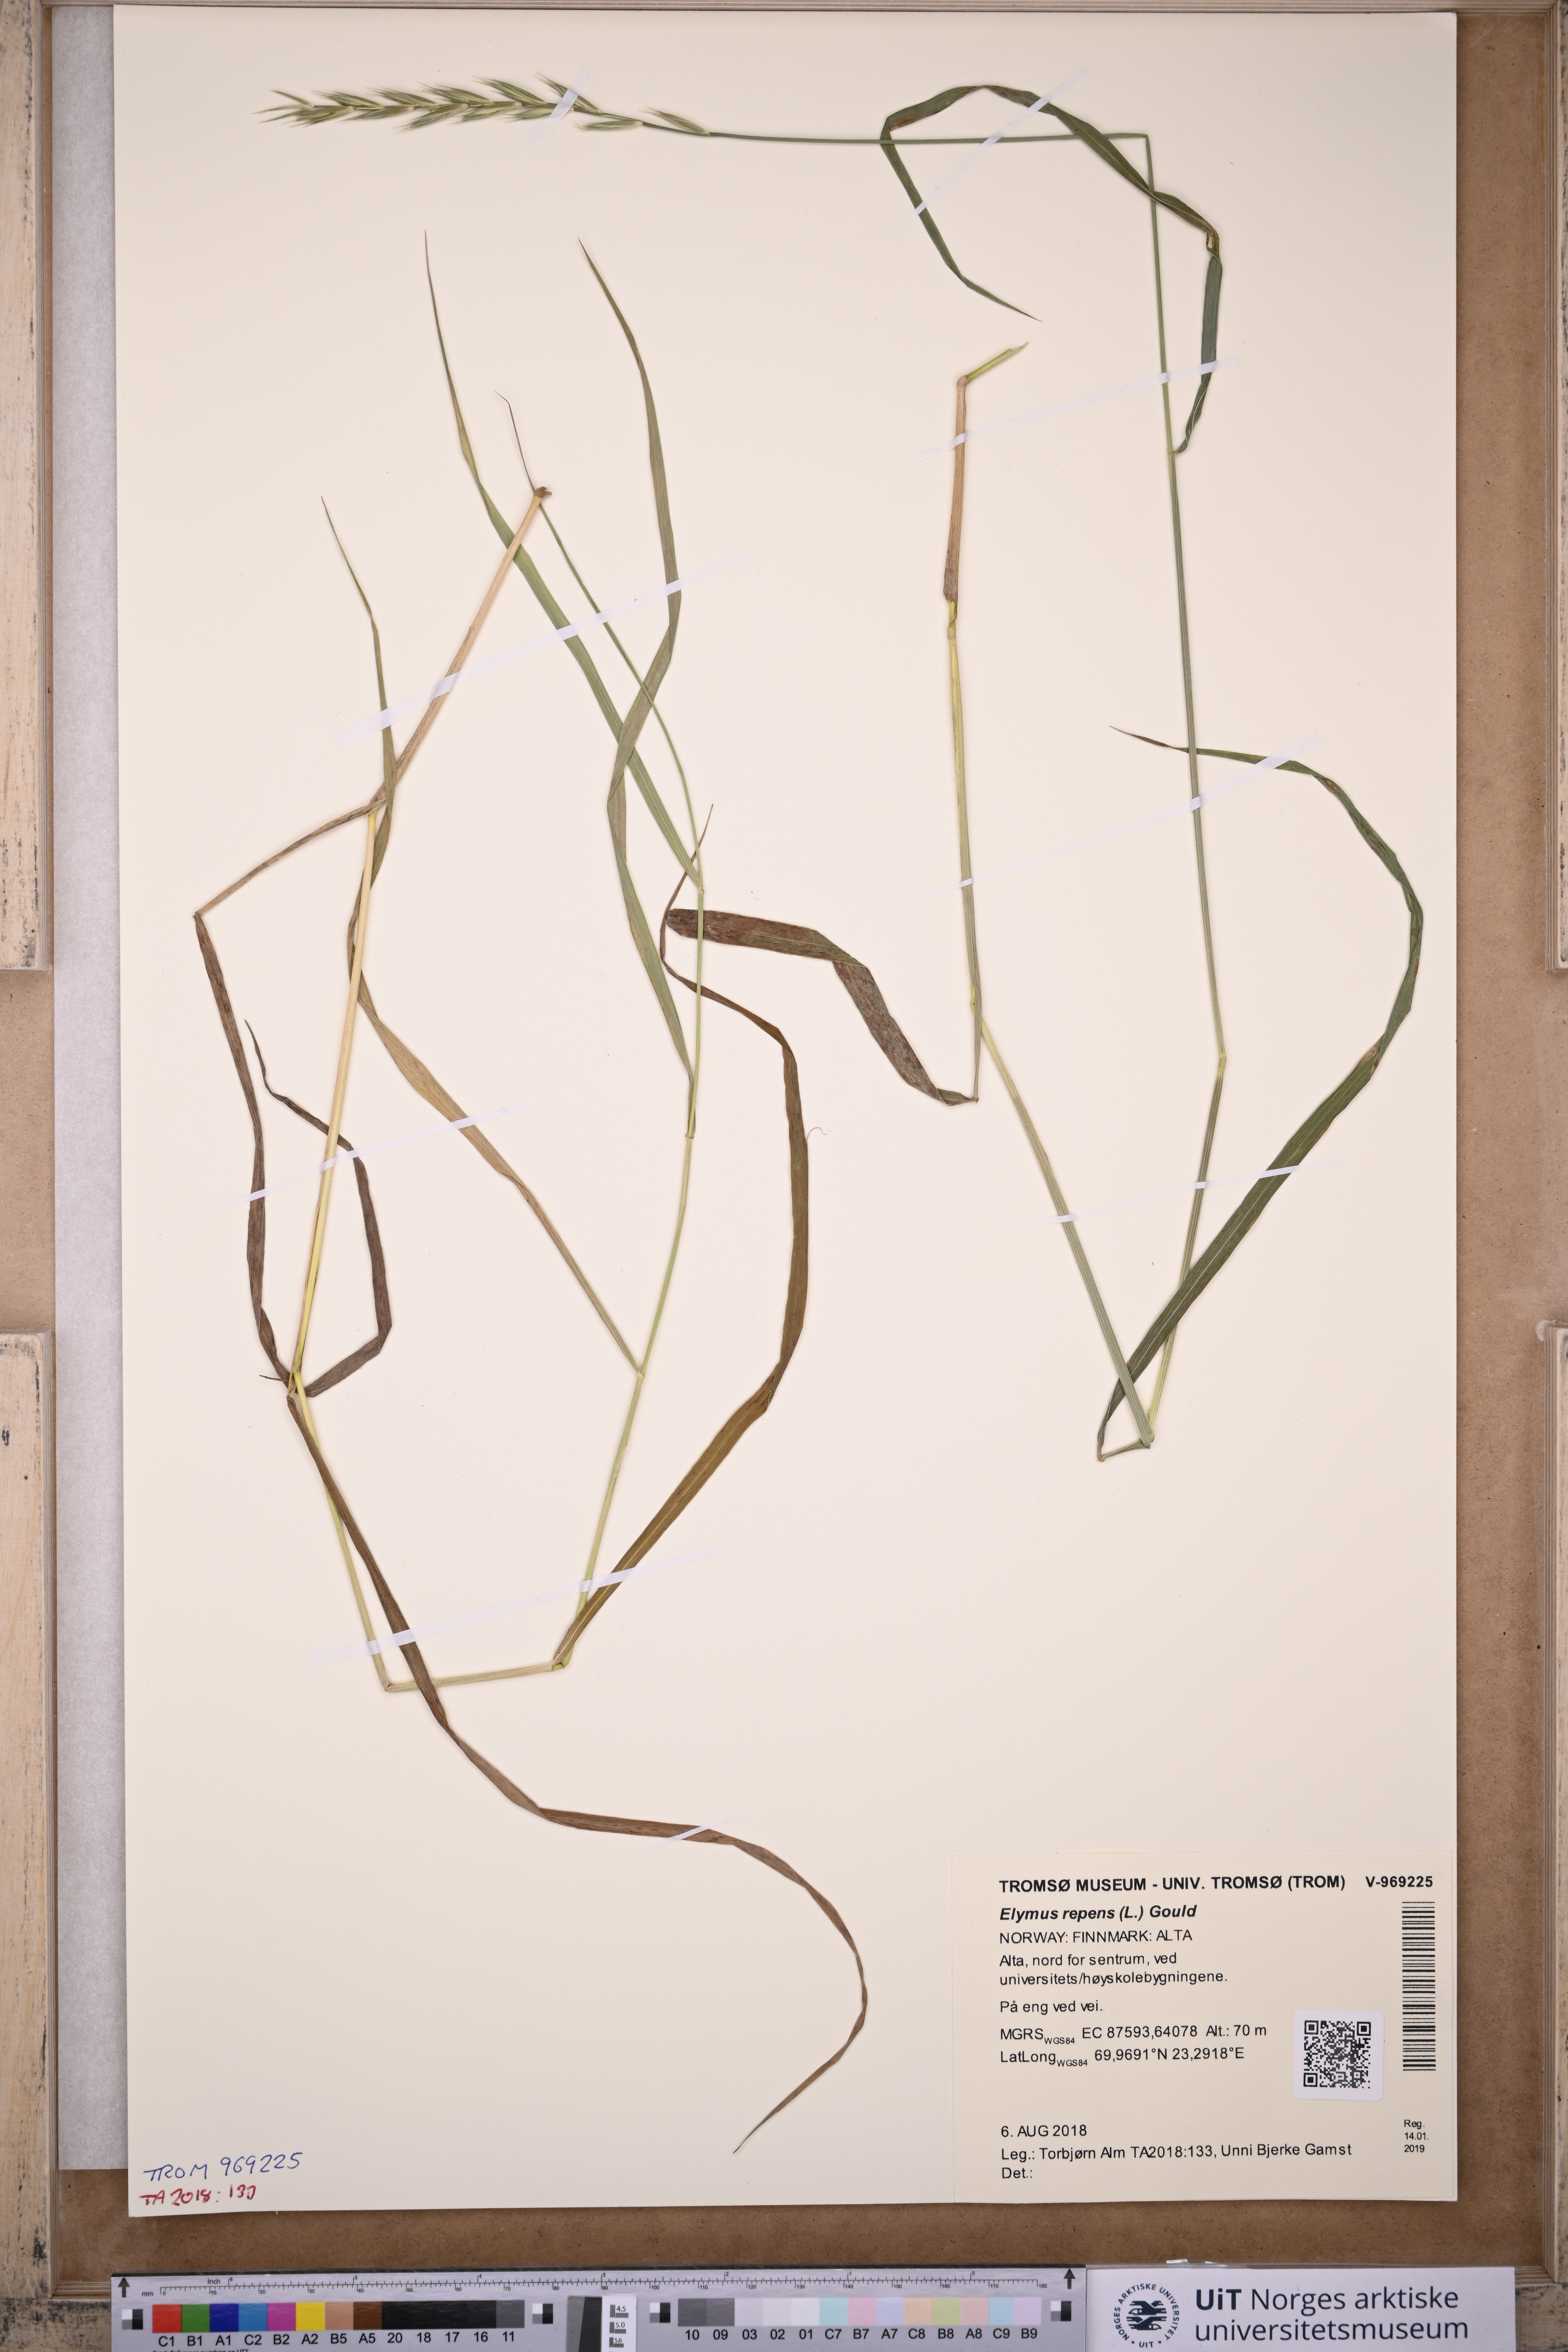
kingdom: Plantae
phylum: Tracheophyta
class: Liliopsida
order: Poales
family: Poaceae
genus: Elymus
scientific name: Elymus repens
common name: Quackgrass
